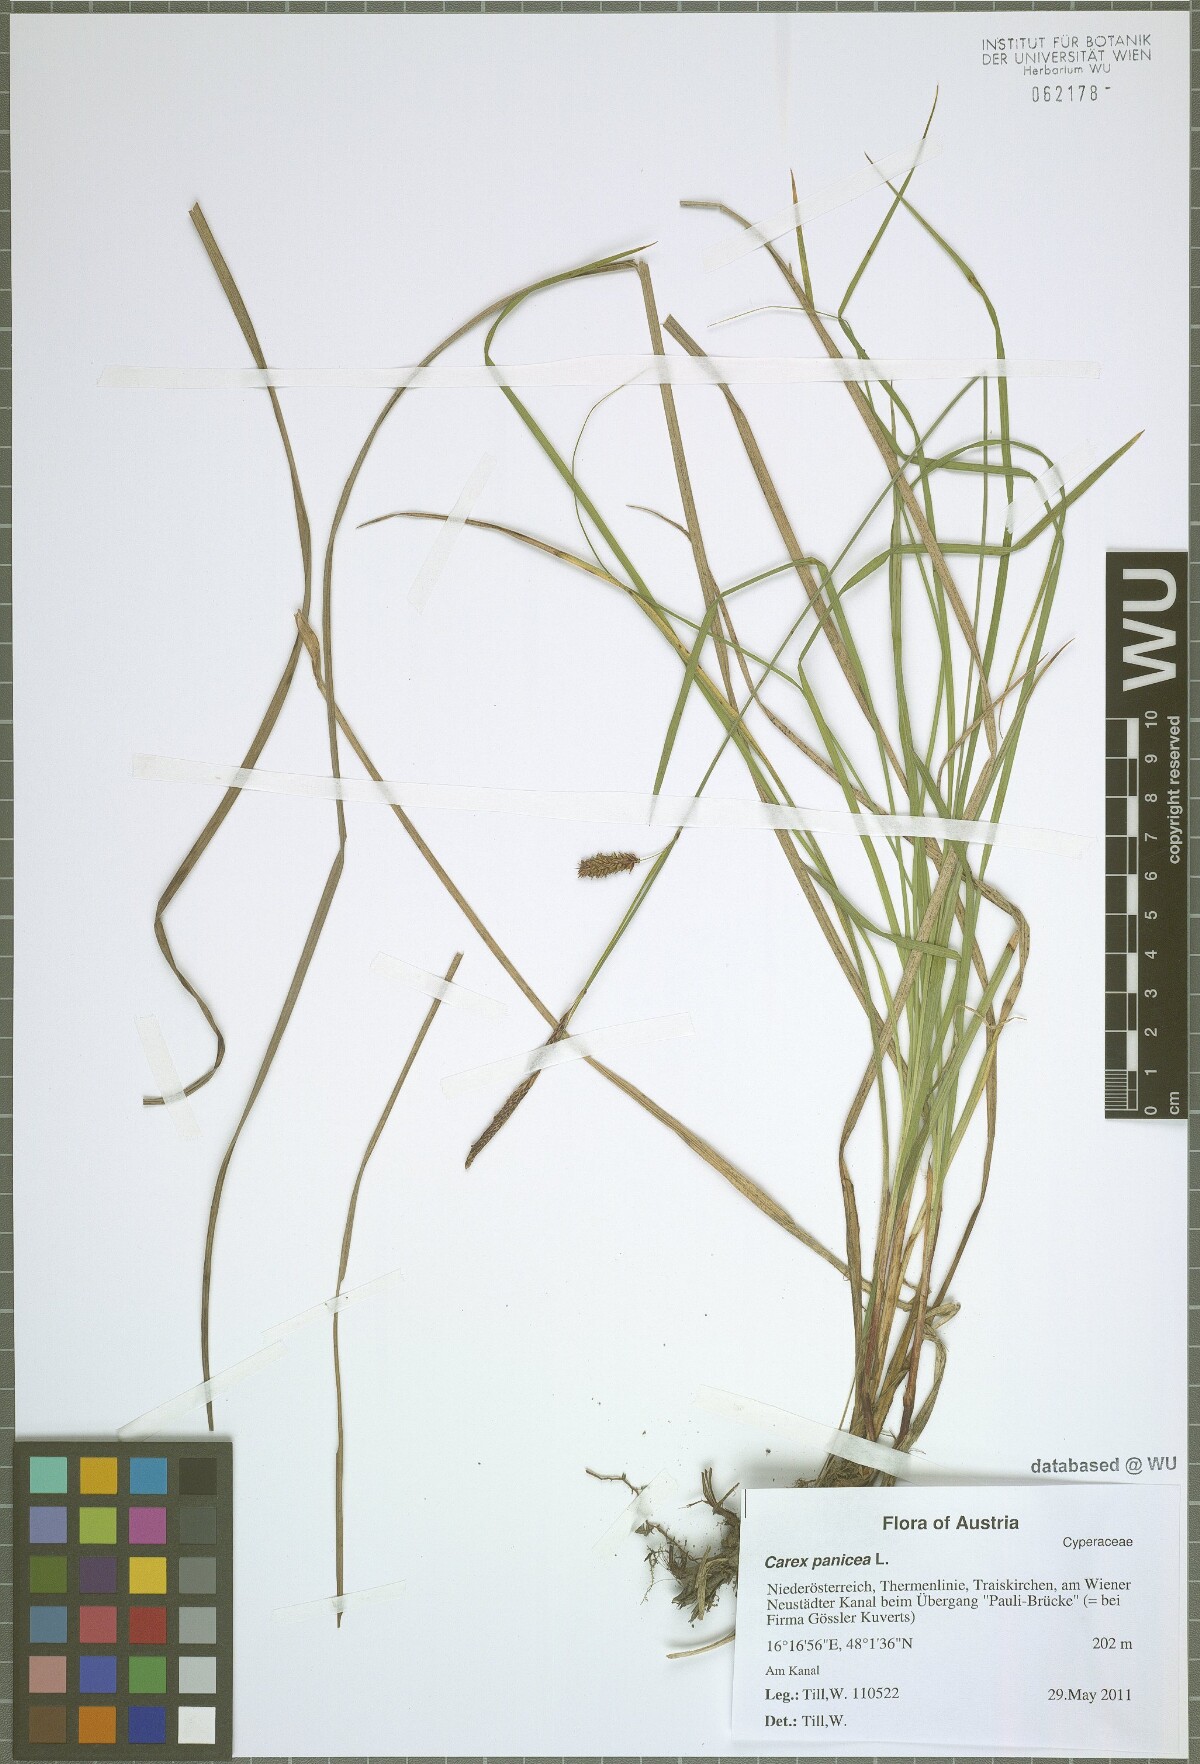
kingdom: Plantae
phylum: Tracheophyta
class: Liliopsida
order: Poales
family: Cyperaceae
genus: Carex
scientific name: Carex flacca
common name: Glaucous sedge
